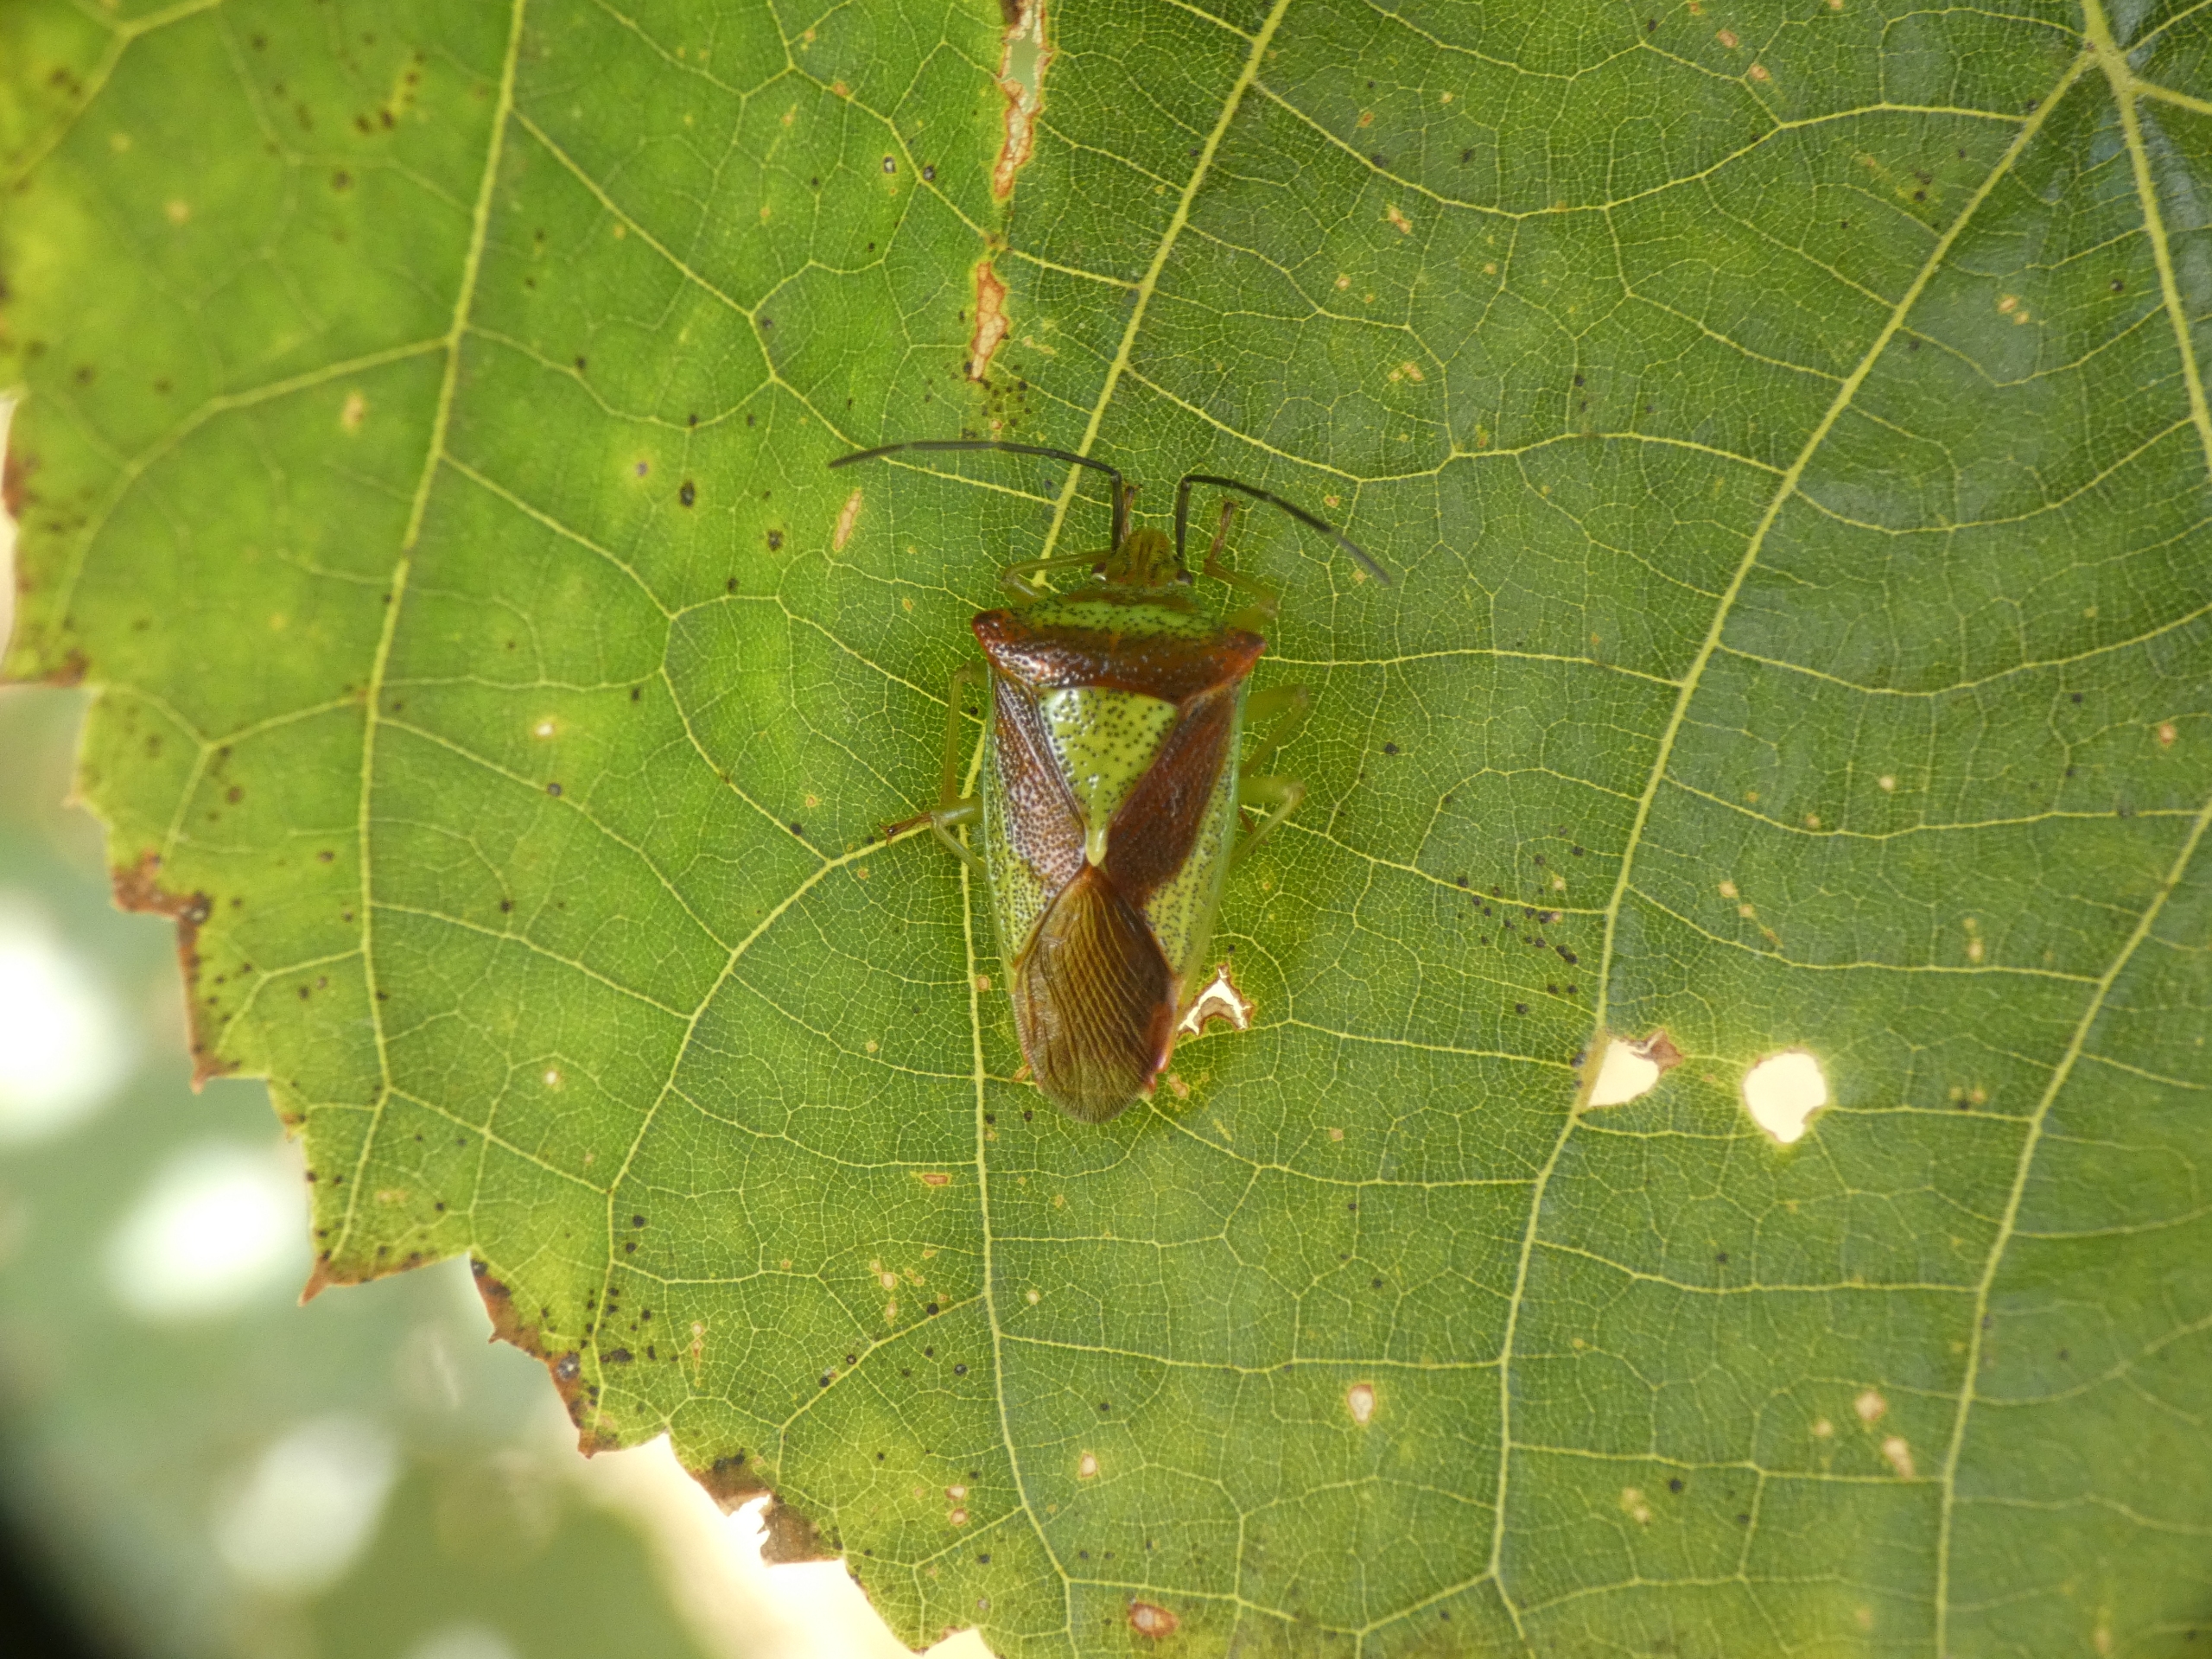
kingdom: Animalia
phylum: Arthropoda
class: Insecta
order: Hemiptera
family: Acanthosomatidae
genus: Acanthosoma
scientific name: Acanthosoma haemorrhoidale
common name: Stor løvtæge
